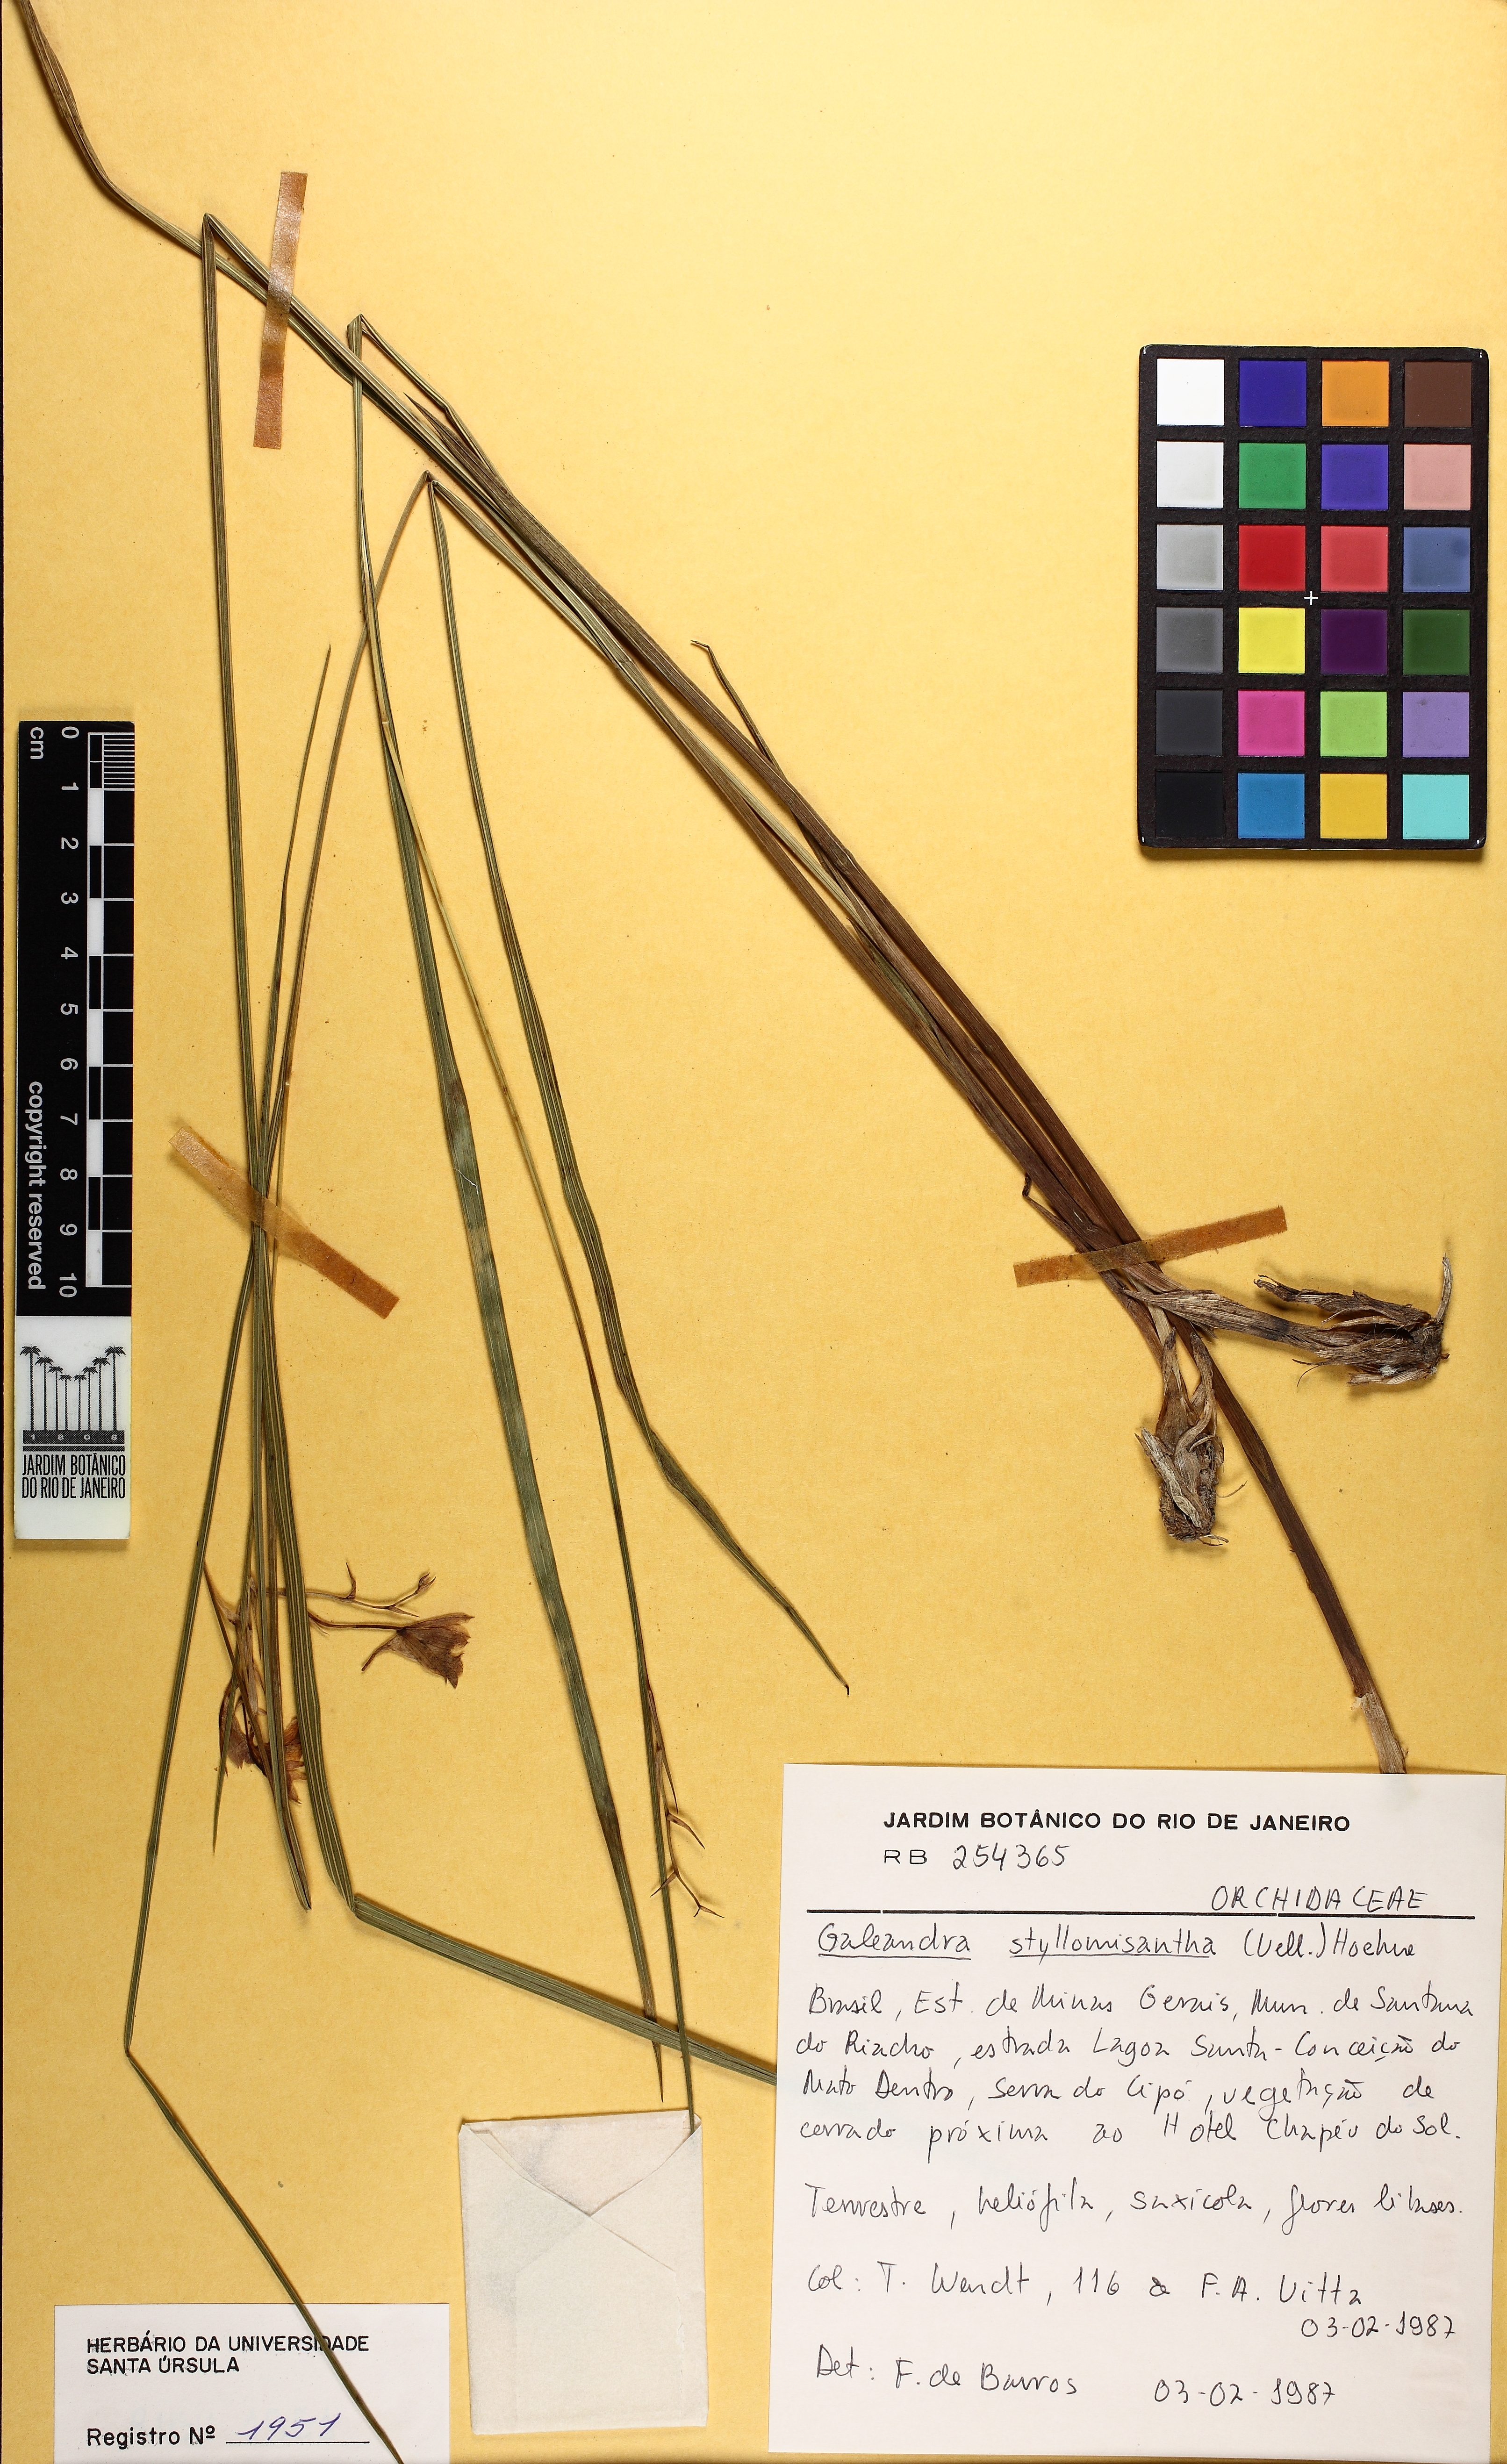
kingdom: Plantae
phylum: Tracheophyta
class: Liliopsida
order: Asparagales
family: Orchidaceae
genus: Galeandra
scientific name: Galeandra styllomisantha
